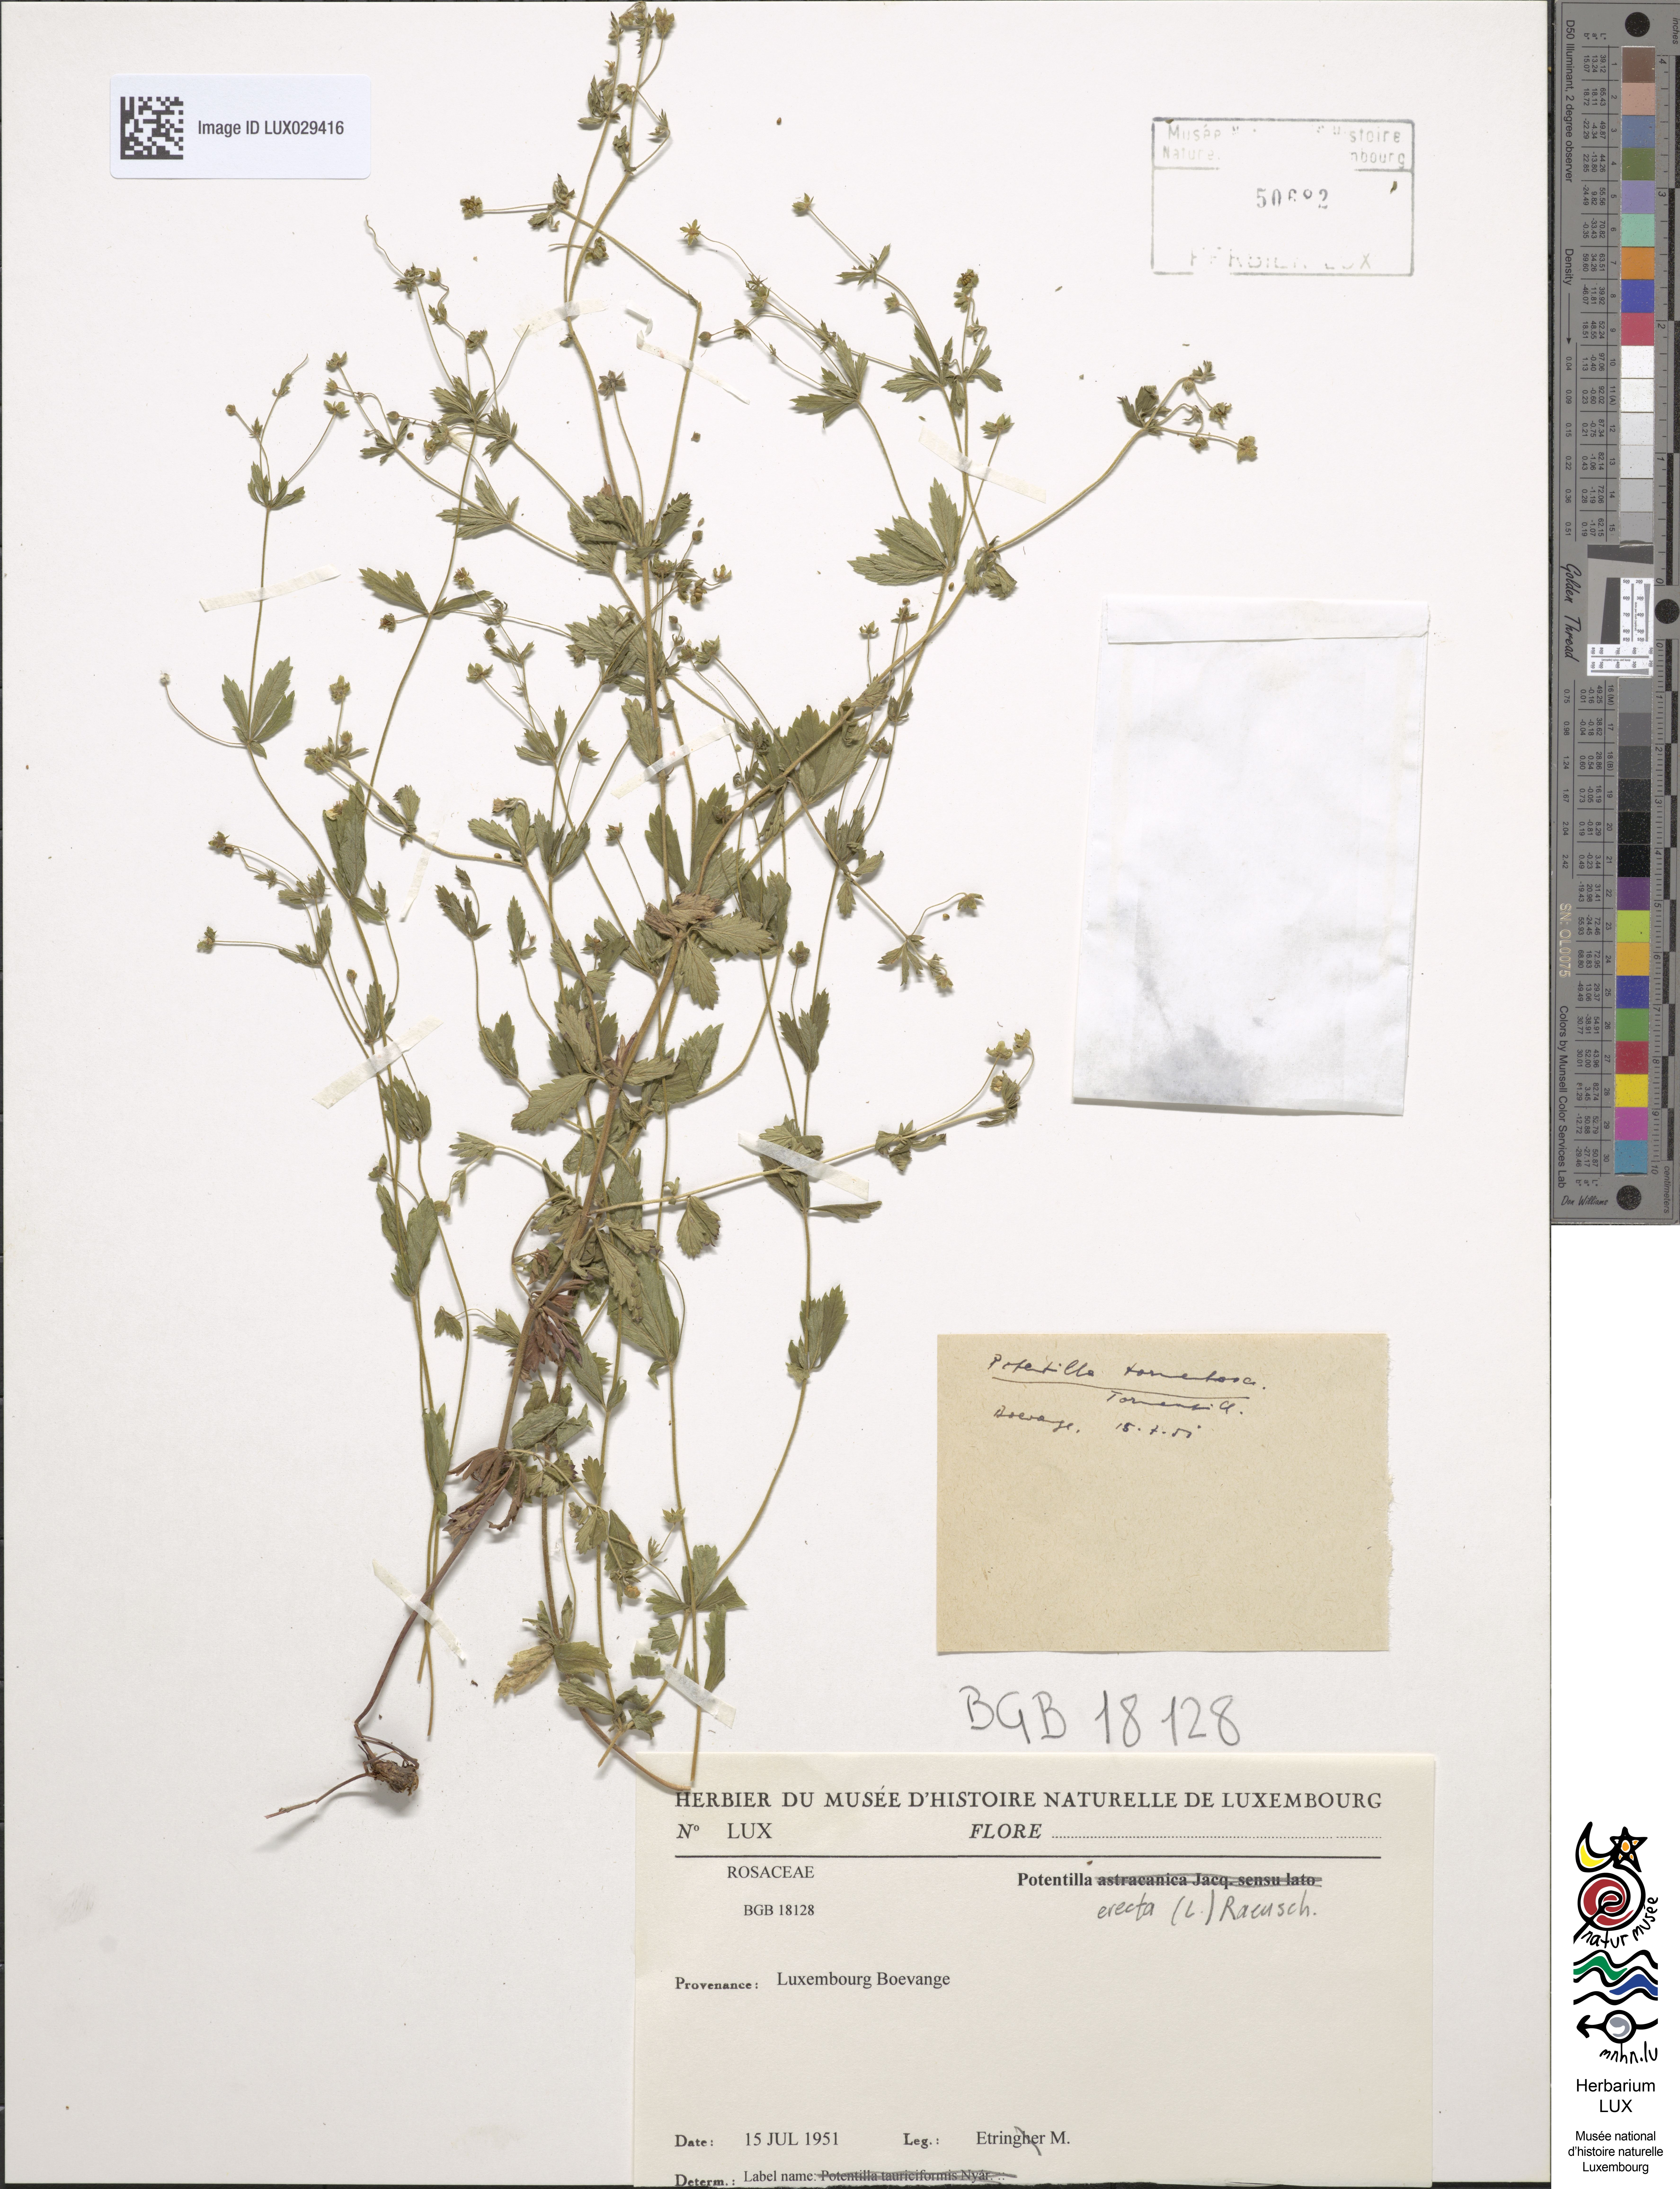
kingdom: Plantae
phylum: Tracheophyta
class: Magnoliopsida
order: Rosales
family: Rosaceae
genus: Potentilla
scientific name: Potentilla erecta
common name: Tormentil
